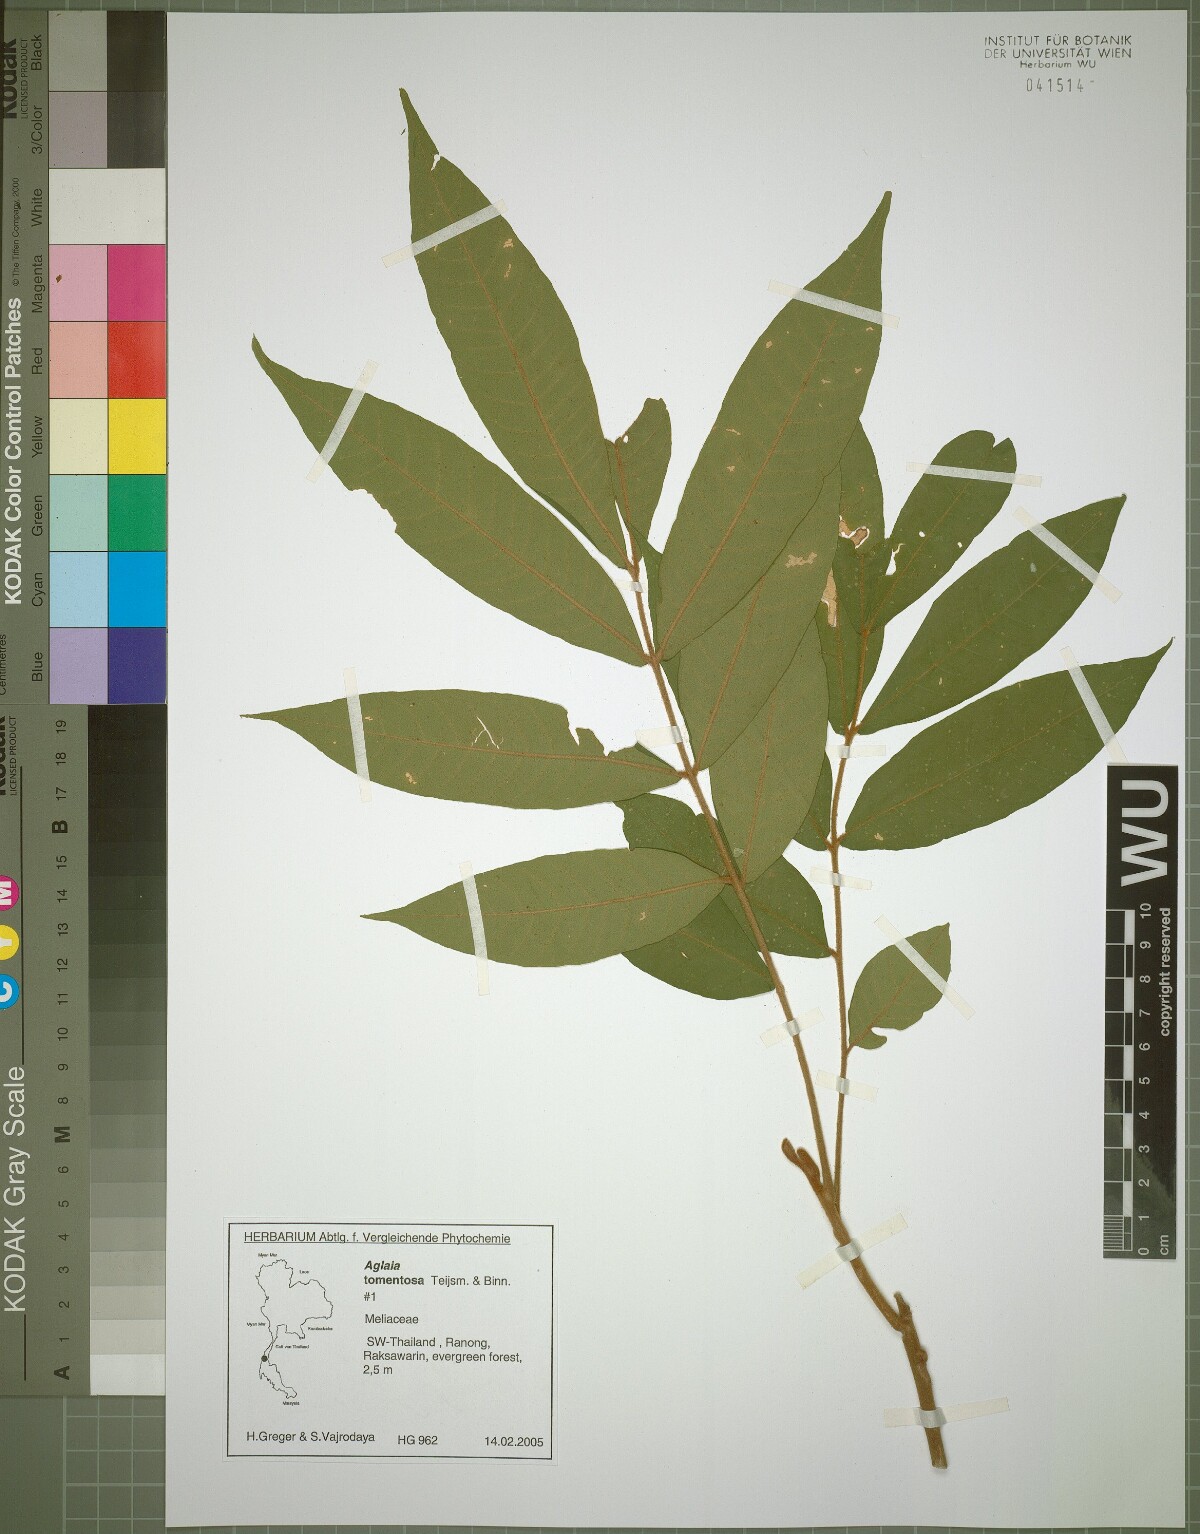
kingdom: Plantae
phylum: Tracheophyta
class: Magnoliopsida
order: Sapindales
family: Meliaceae
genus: Aglaia
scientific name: Aglaia tomentosa
